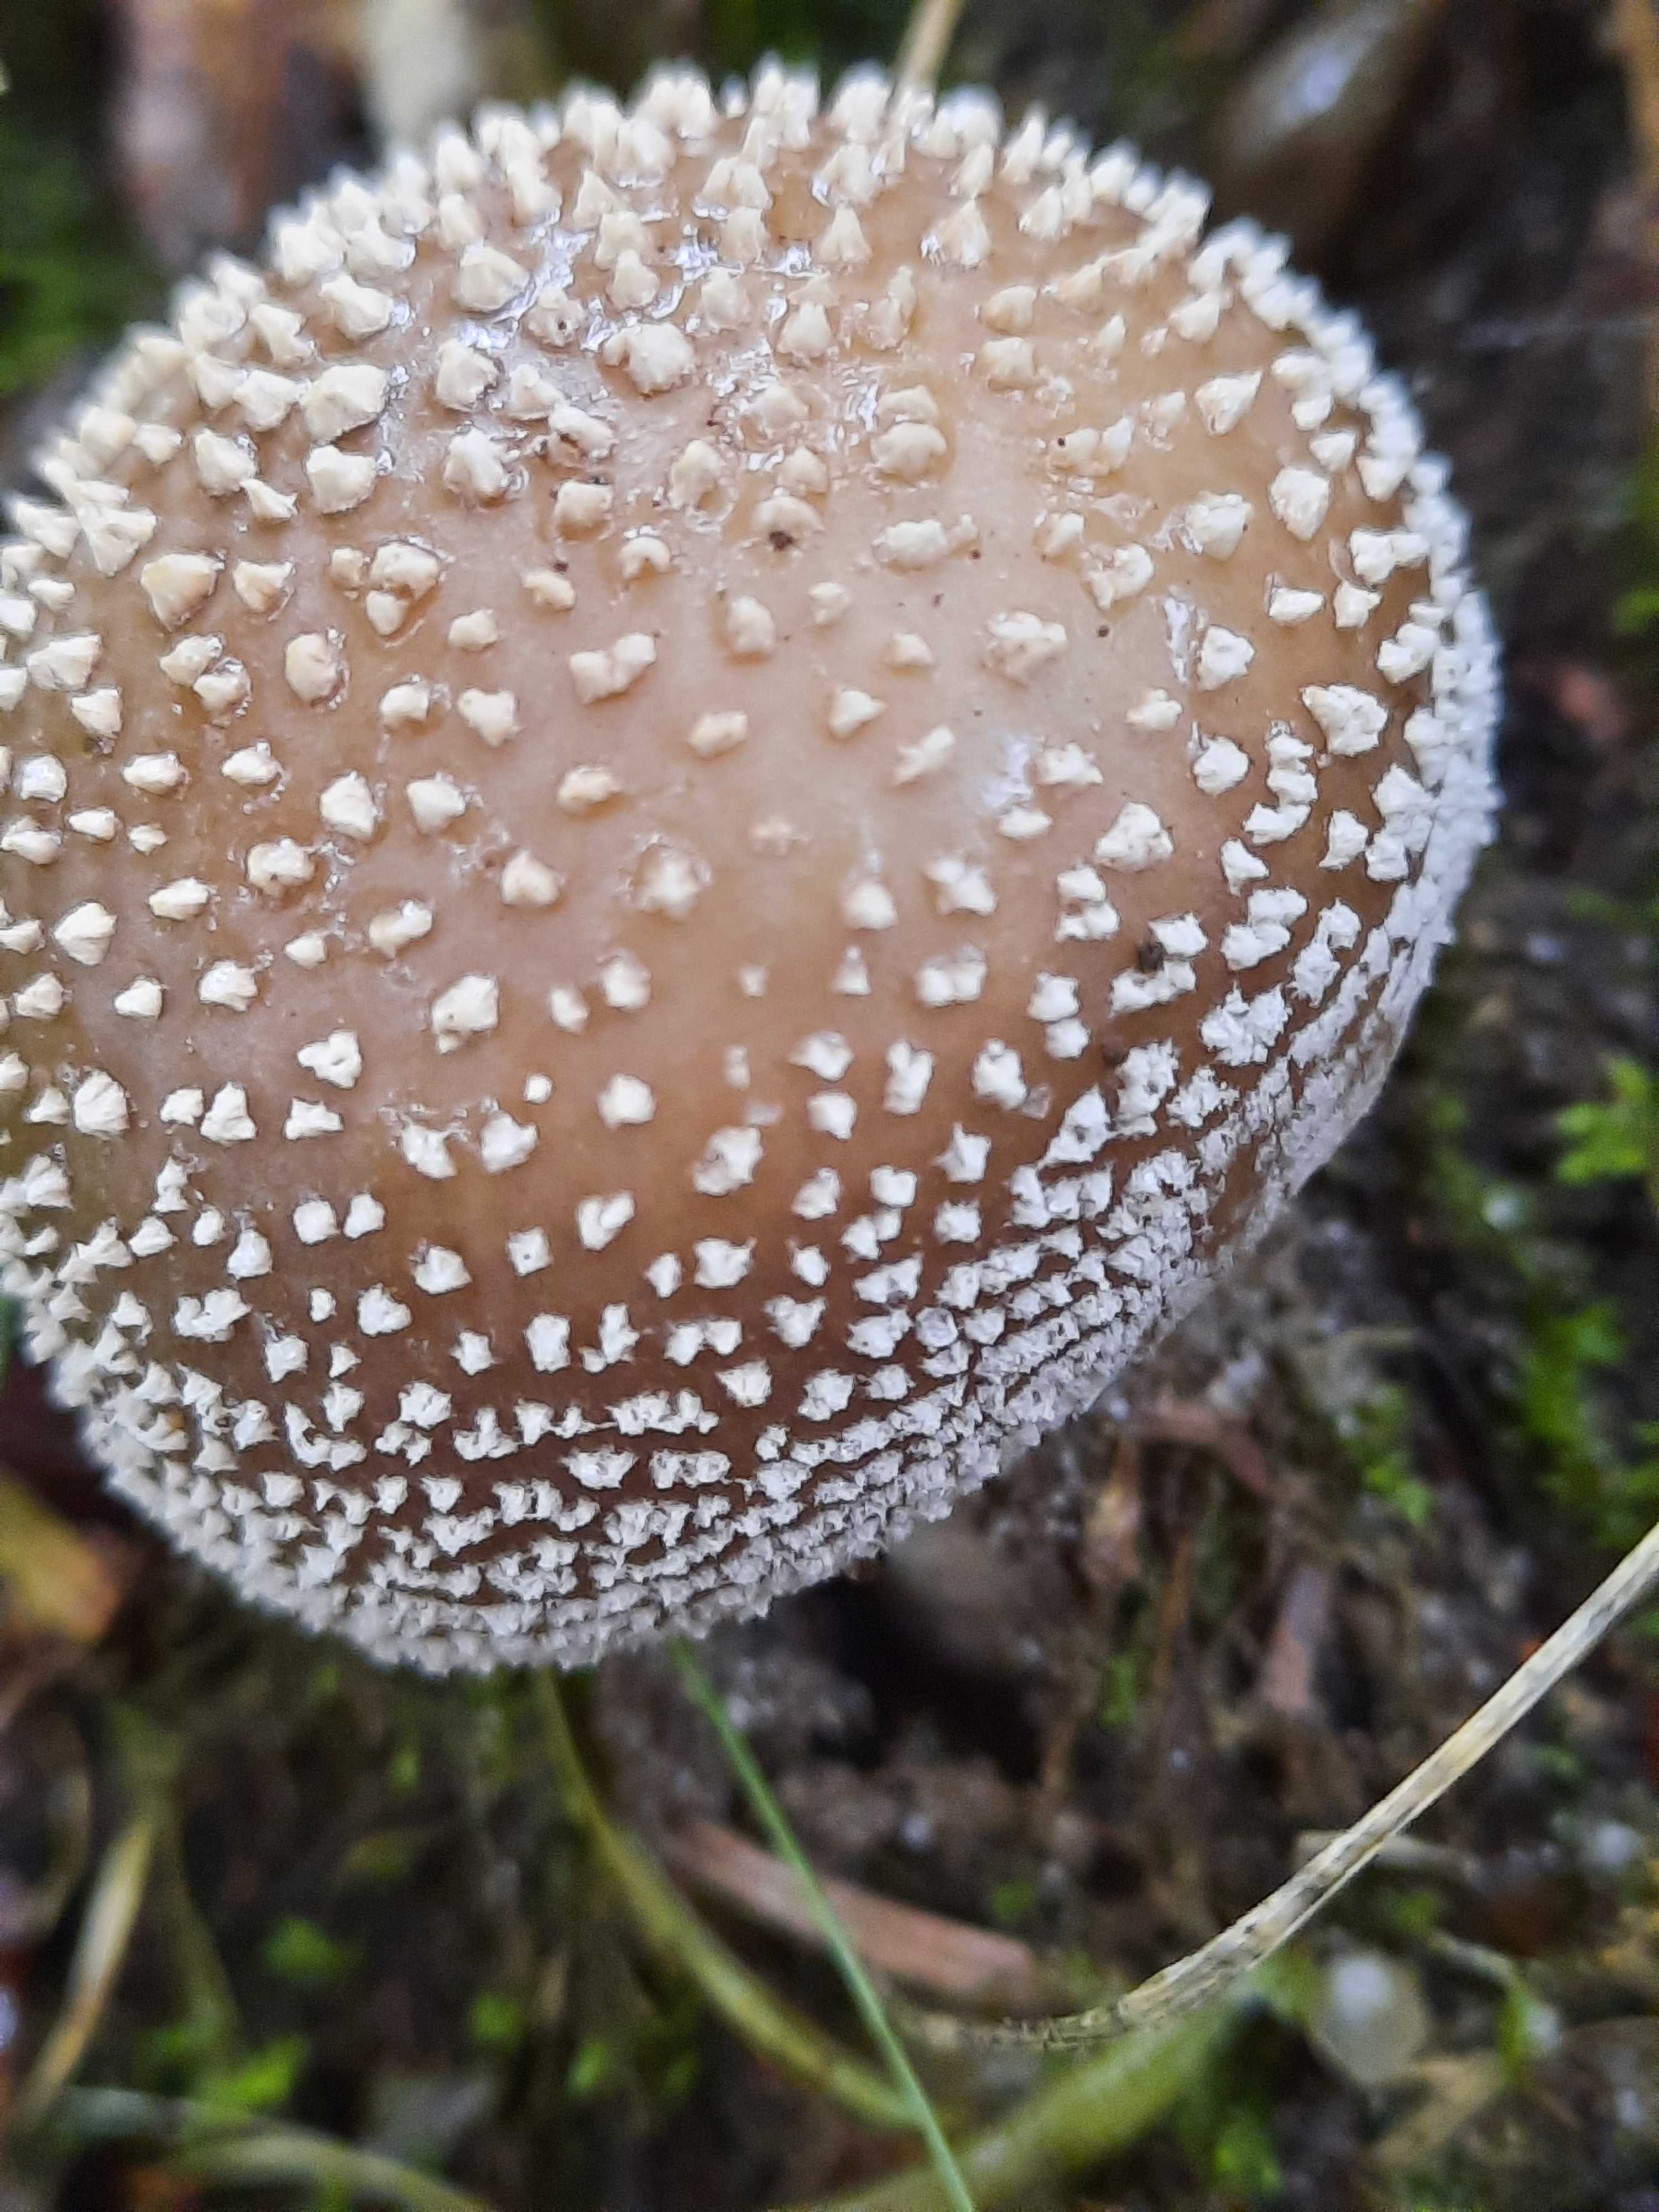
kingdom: Fungi
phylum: Basidiomycota
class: Agaricomycetes
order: Agaricales
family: Amanitaceae
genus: Amanita
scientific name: Amanita
